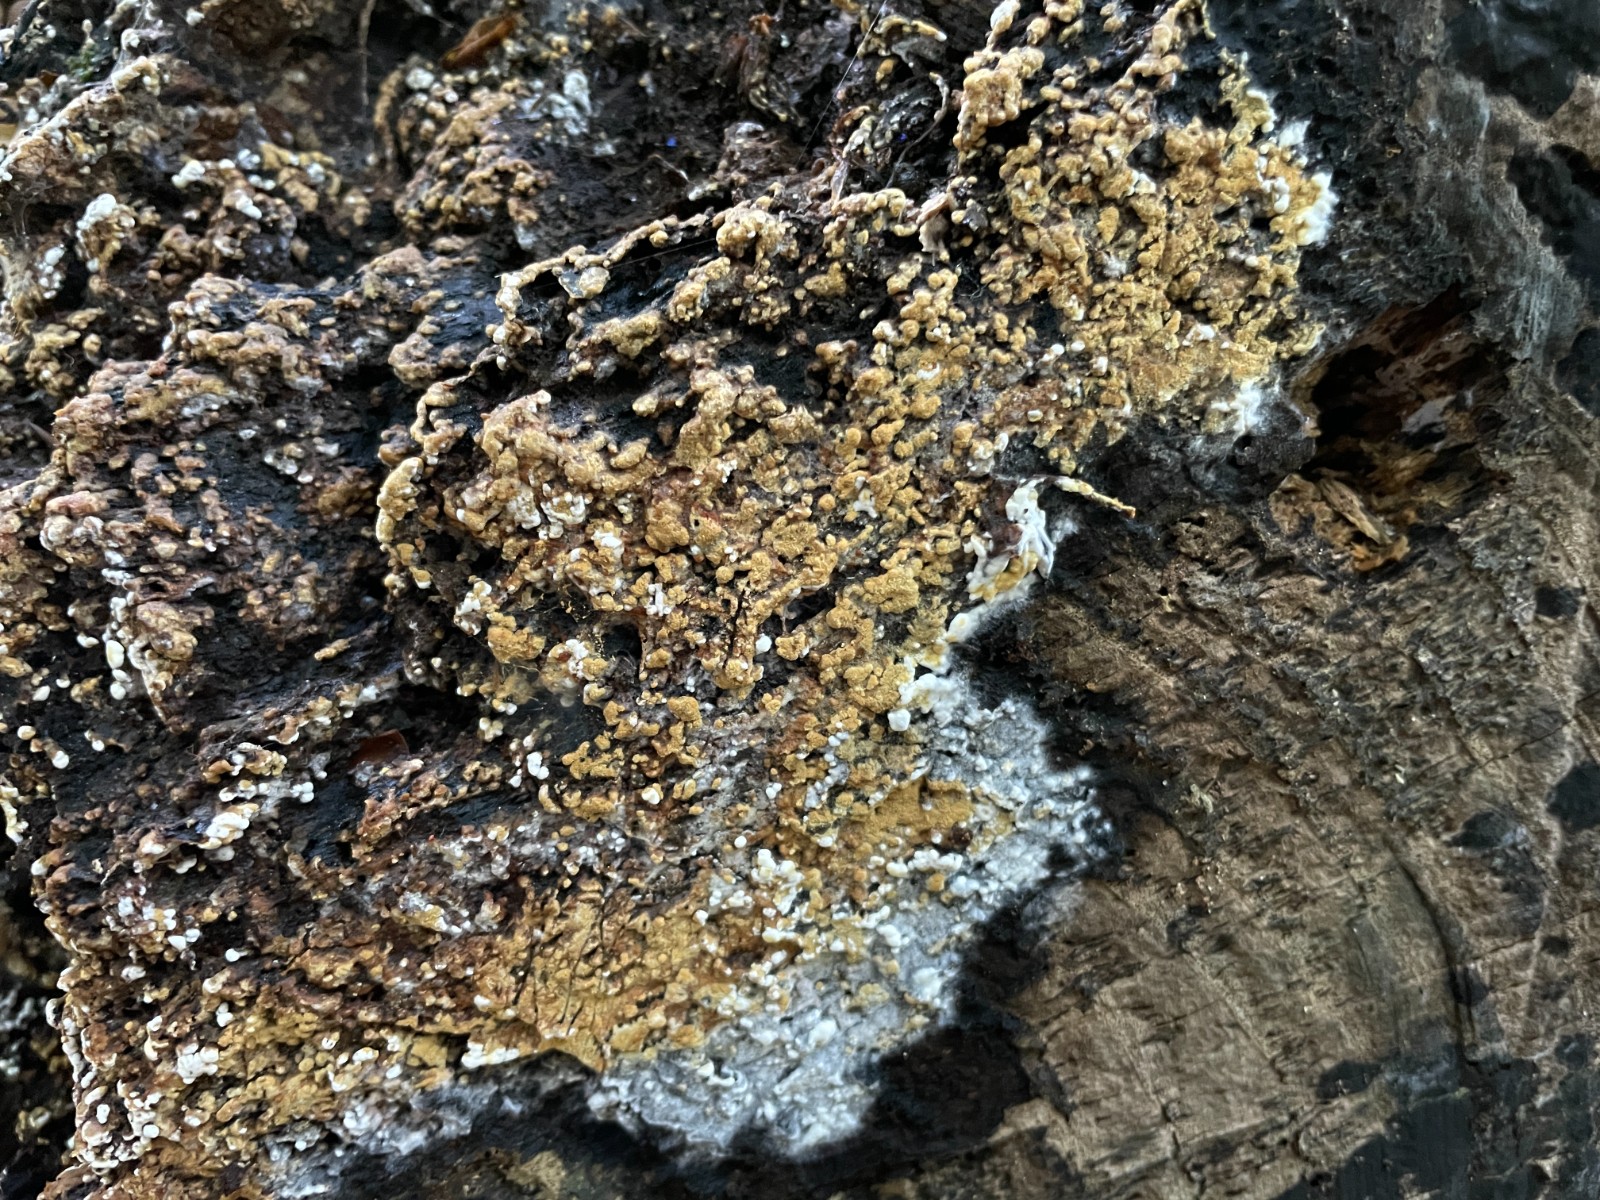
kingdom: Fungi
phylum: Basidiomycota
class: Agaricomycetes
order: Cantharellales
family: Botryobasidiaceae
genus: Botryobasidium
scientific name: Botryobasidium aureum
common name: gylden spindhinde
